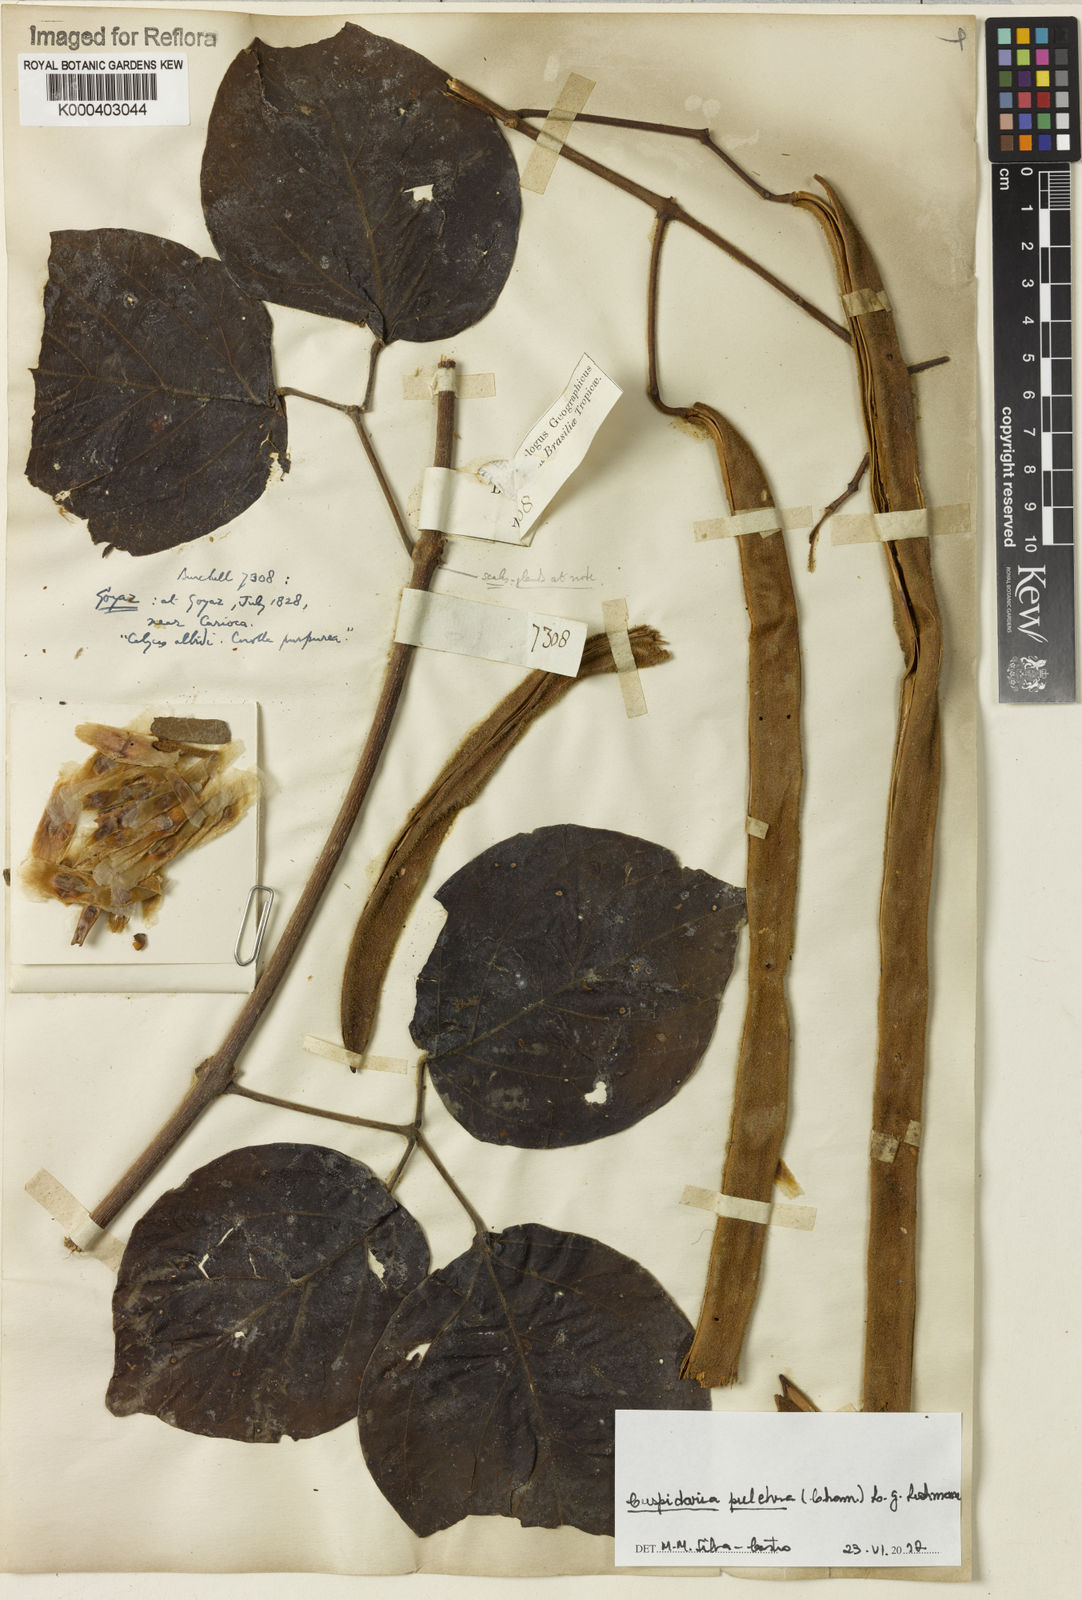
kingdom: Plantae
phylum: Tracheophyta
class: Magnoliopsida
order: Lamiales
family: Bignoniaceae
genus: Cuspidaria
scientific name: Cuspidaria pulchra
